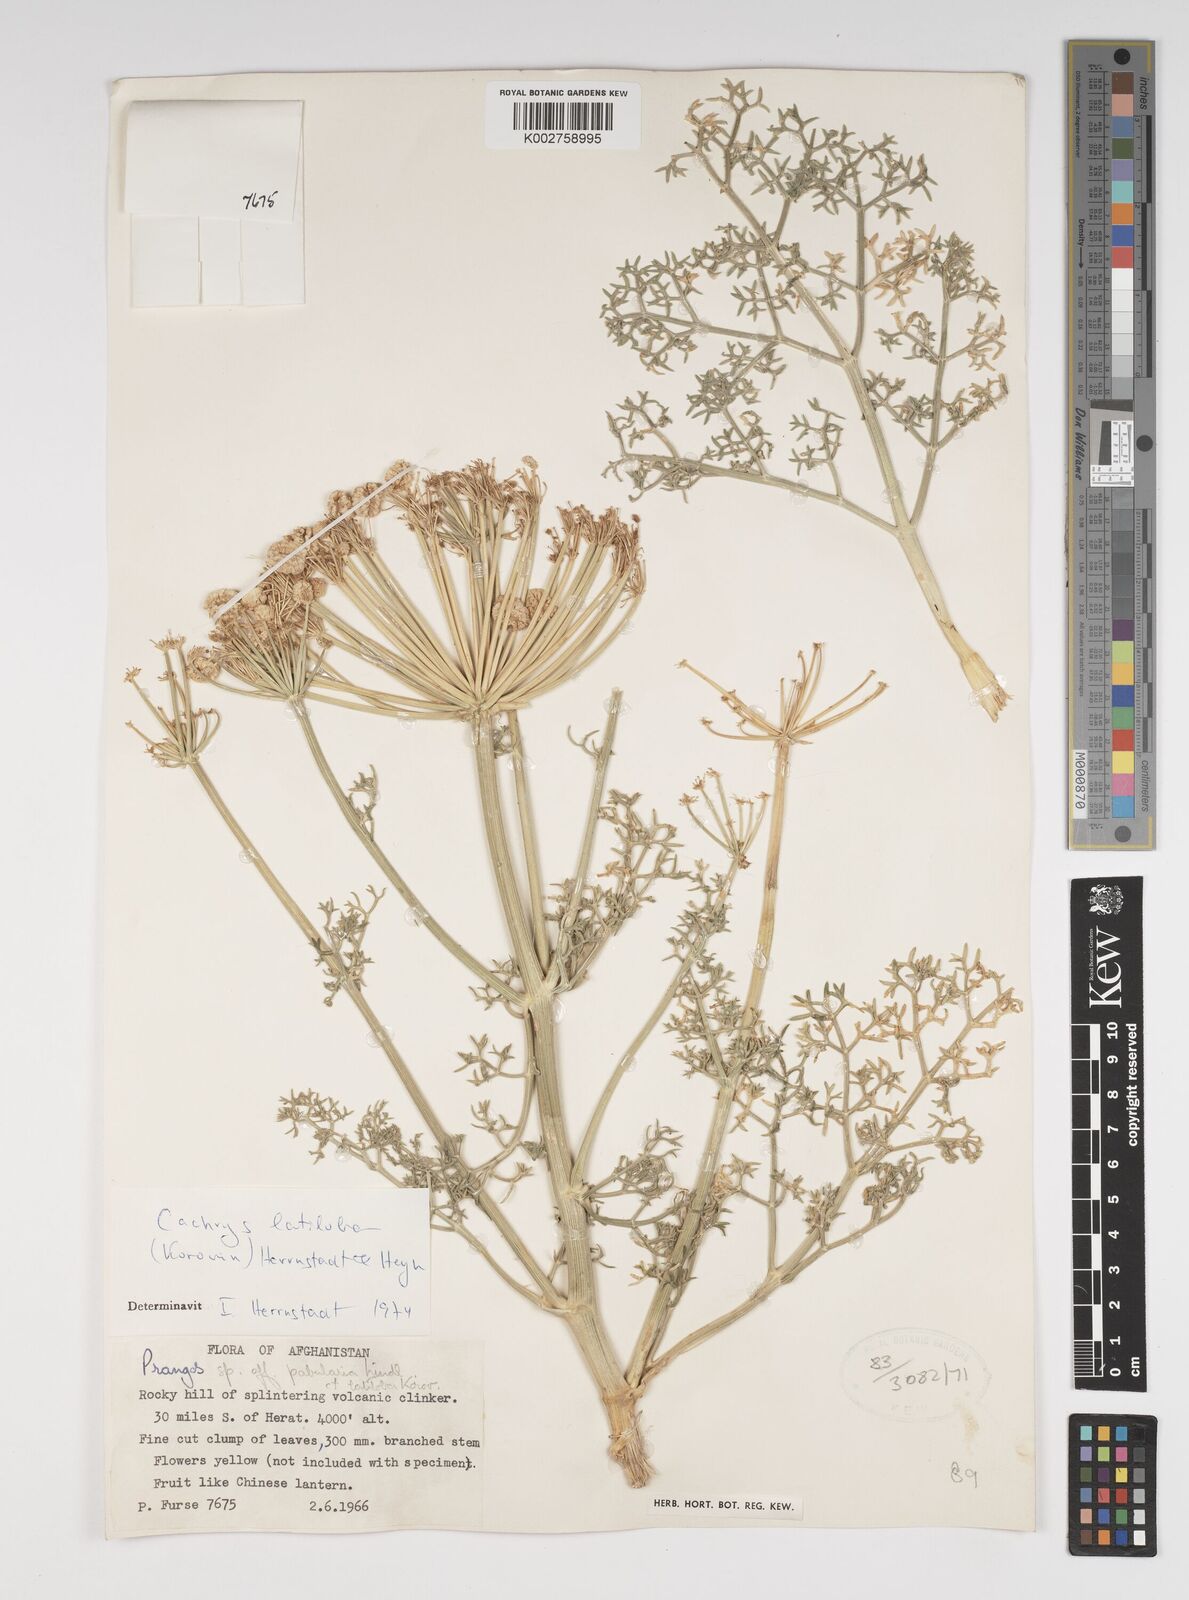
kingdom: Plantae
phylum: Tracheophyta
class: Magnoliopsida
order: Apiales
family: Apiaceae
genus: Prangos
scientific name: Prangos latiloba
